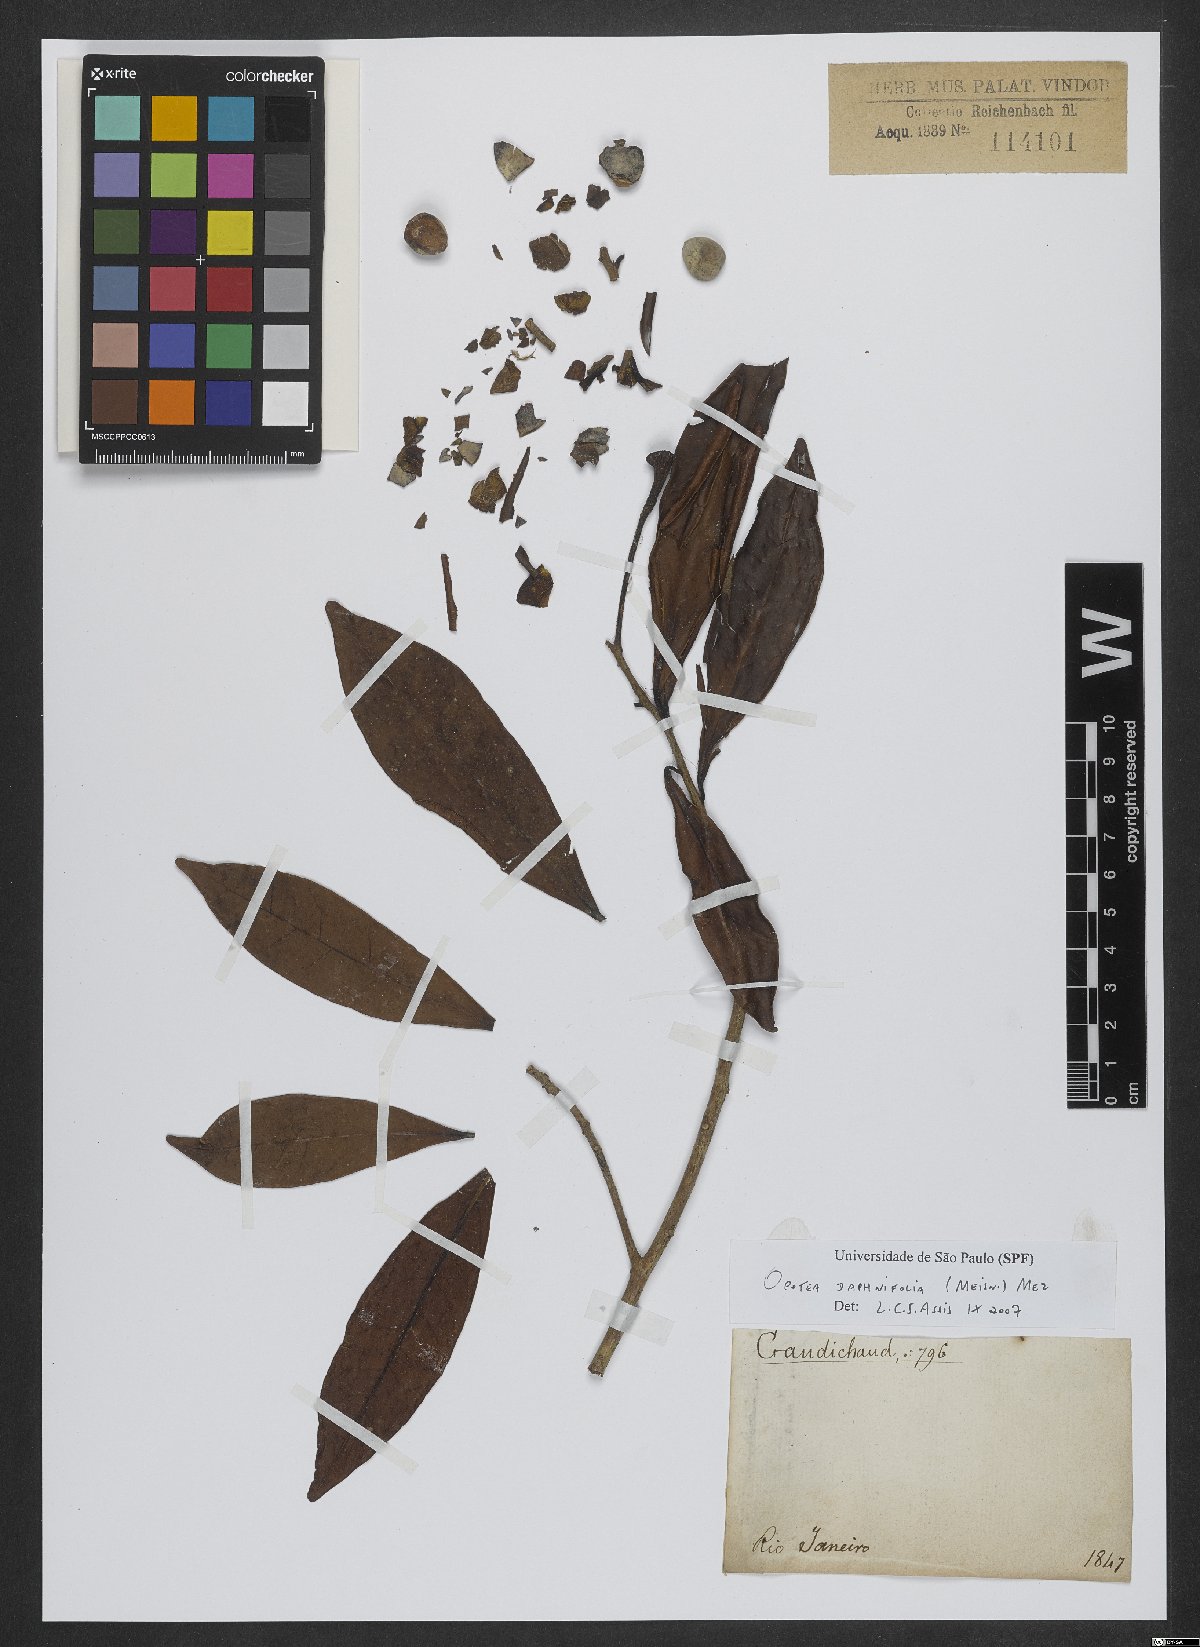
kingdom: Plantae
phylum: Tracheophyta
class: Magnoliopsida
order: Laurales
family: Lauraceae
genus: Ocotea
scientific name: Ocotea daphnifolia
